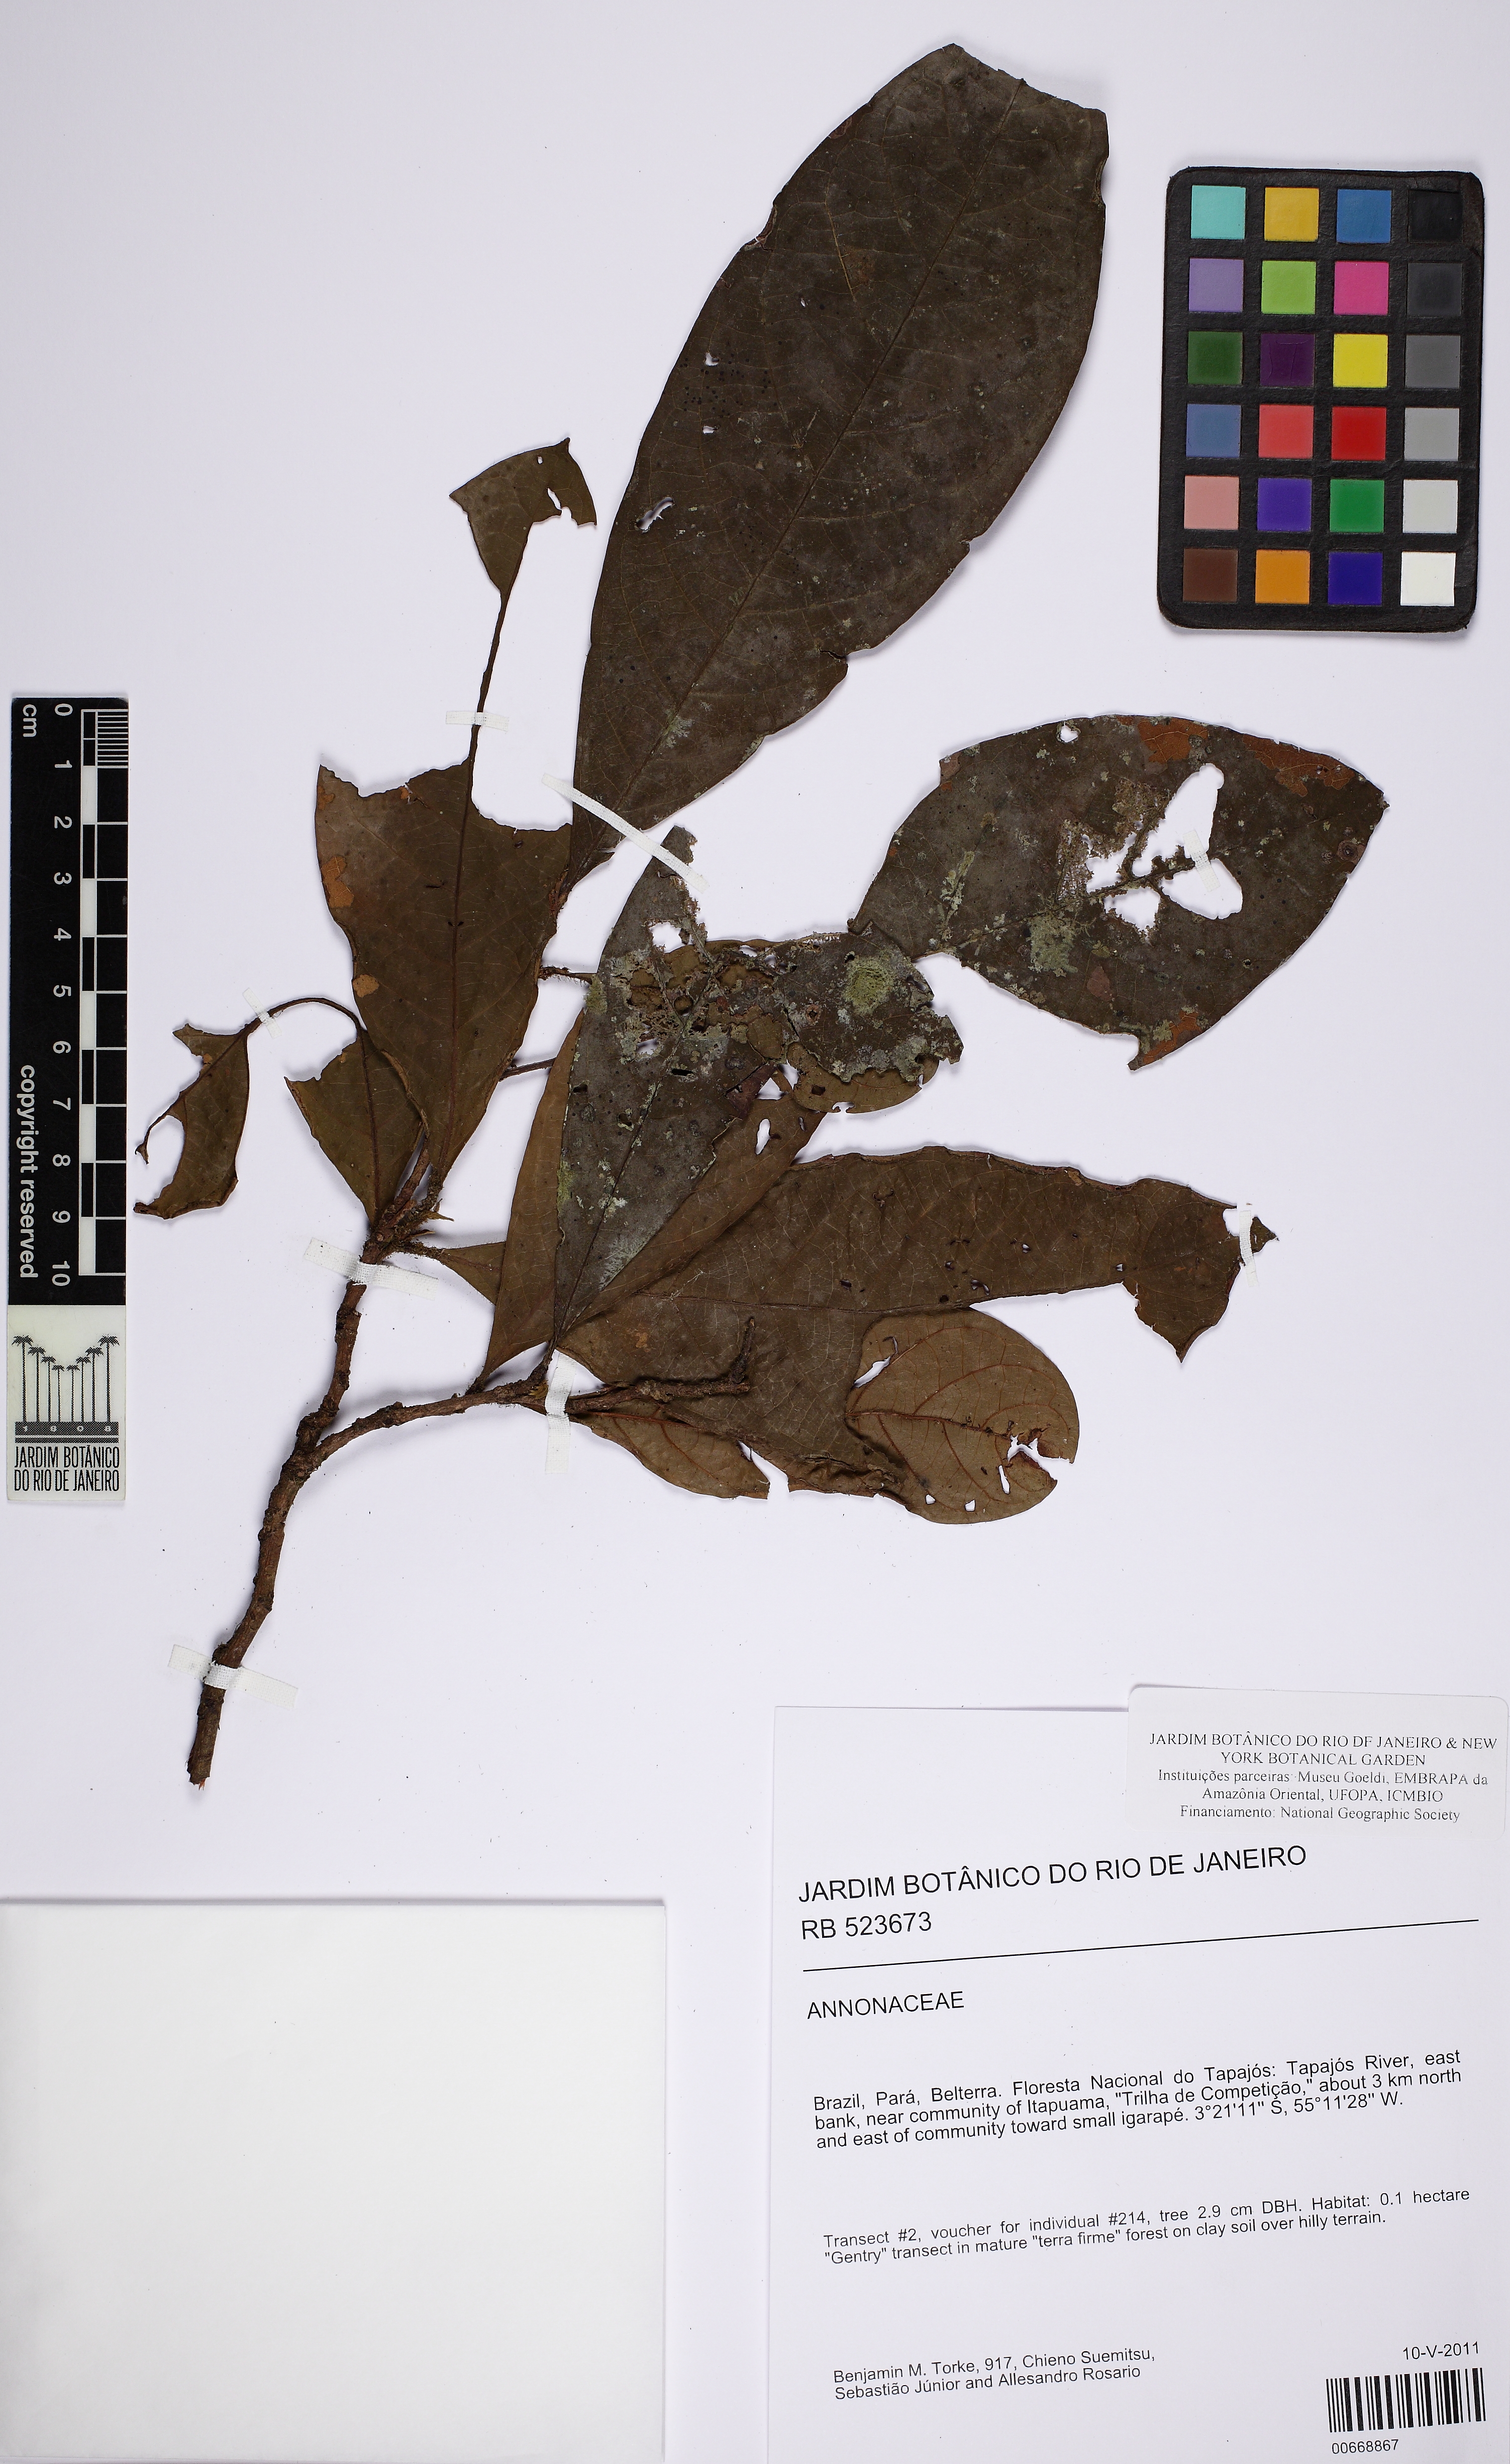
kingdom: Plantae
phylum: Tracheophyta
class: Magnoliopsida
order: Malpighiales
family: Chrysobalanaceae
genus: Licania
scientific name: Licania
